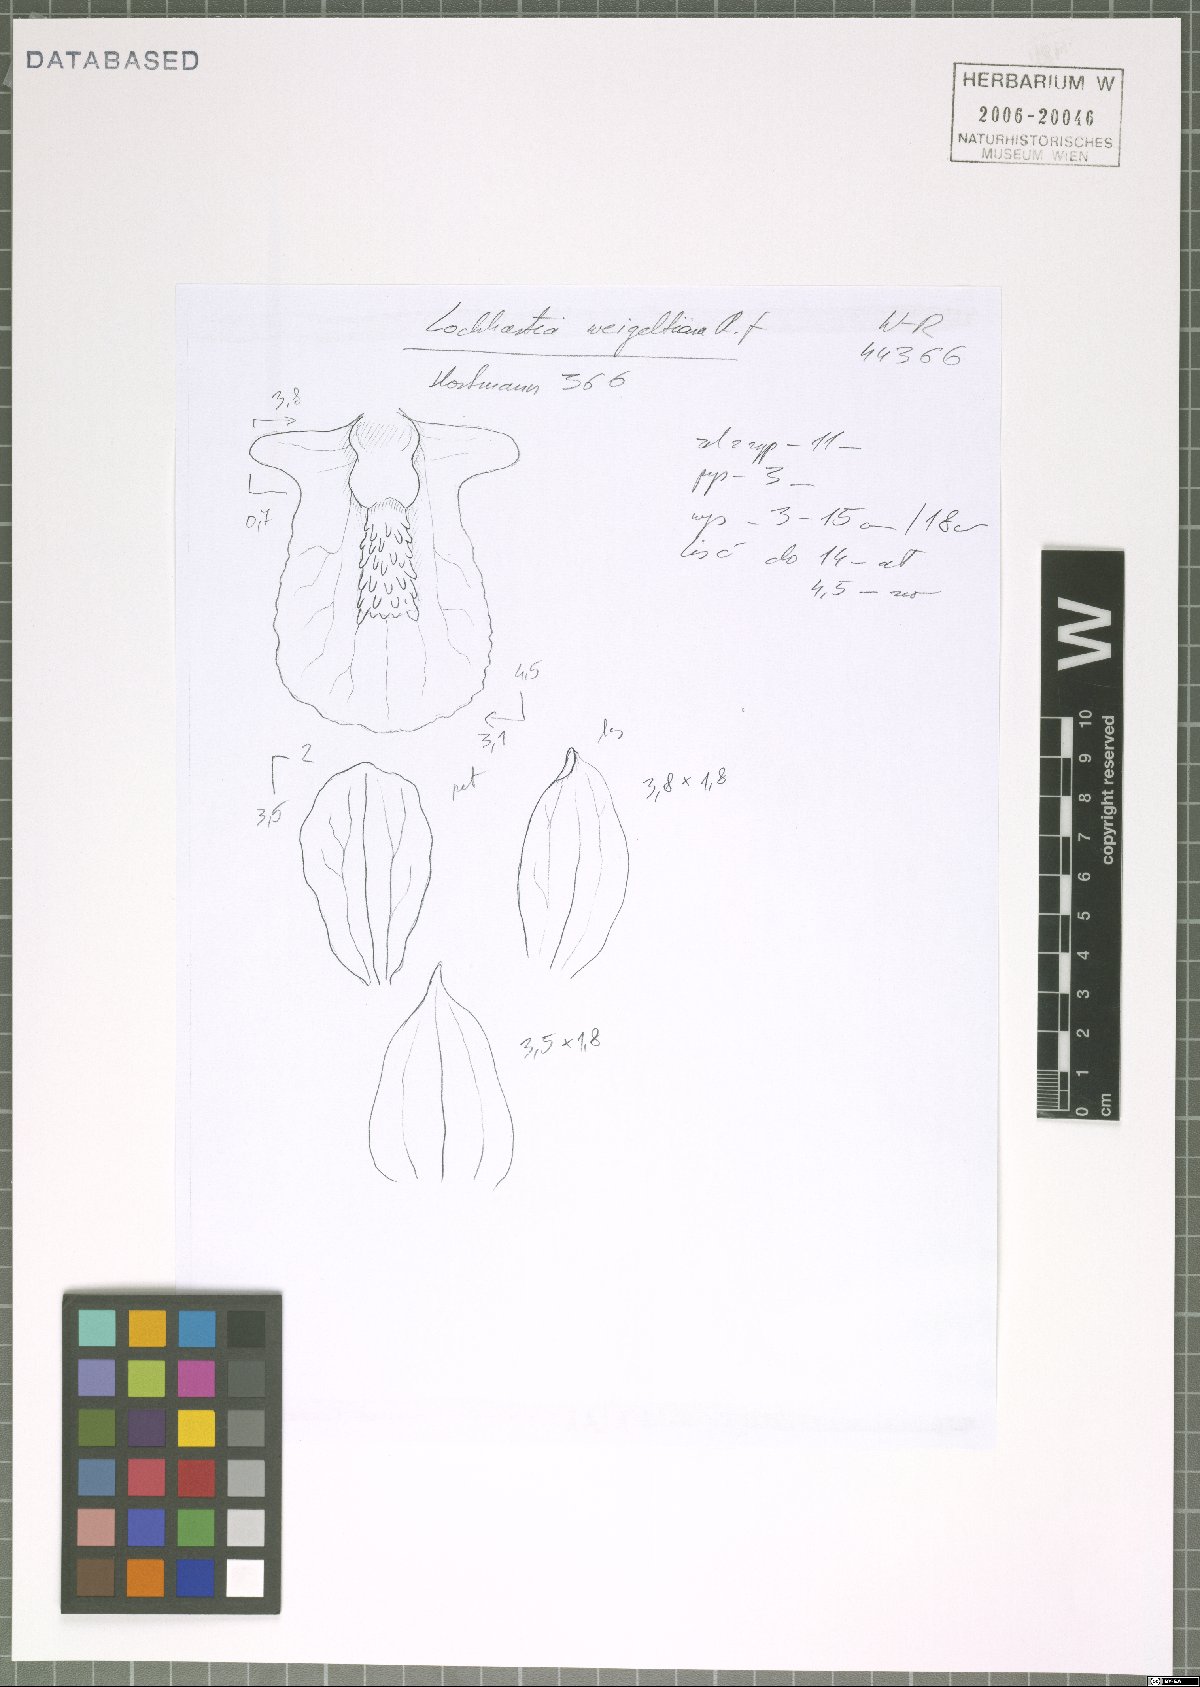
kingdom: Plantae
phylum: Tracheophyta
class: Liliopsida
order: Asparagales
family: Orchidaceae
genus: Lockhartia
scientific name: Lockhartia imbricata
